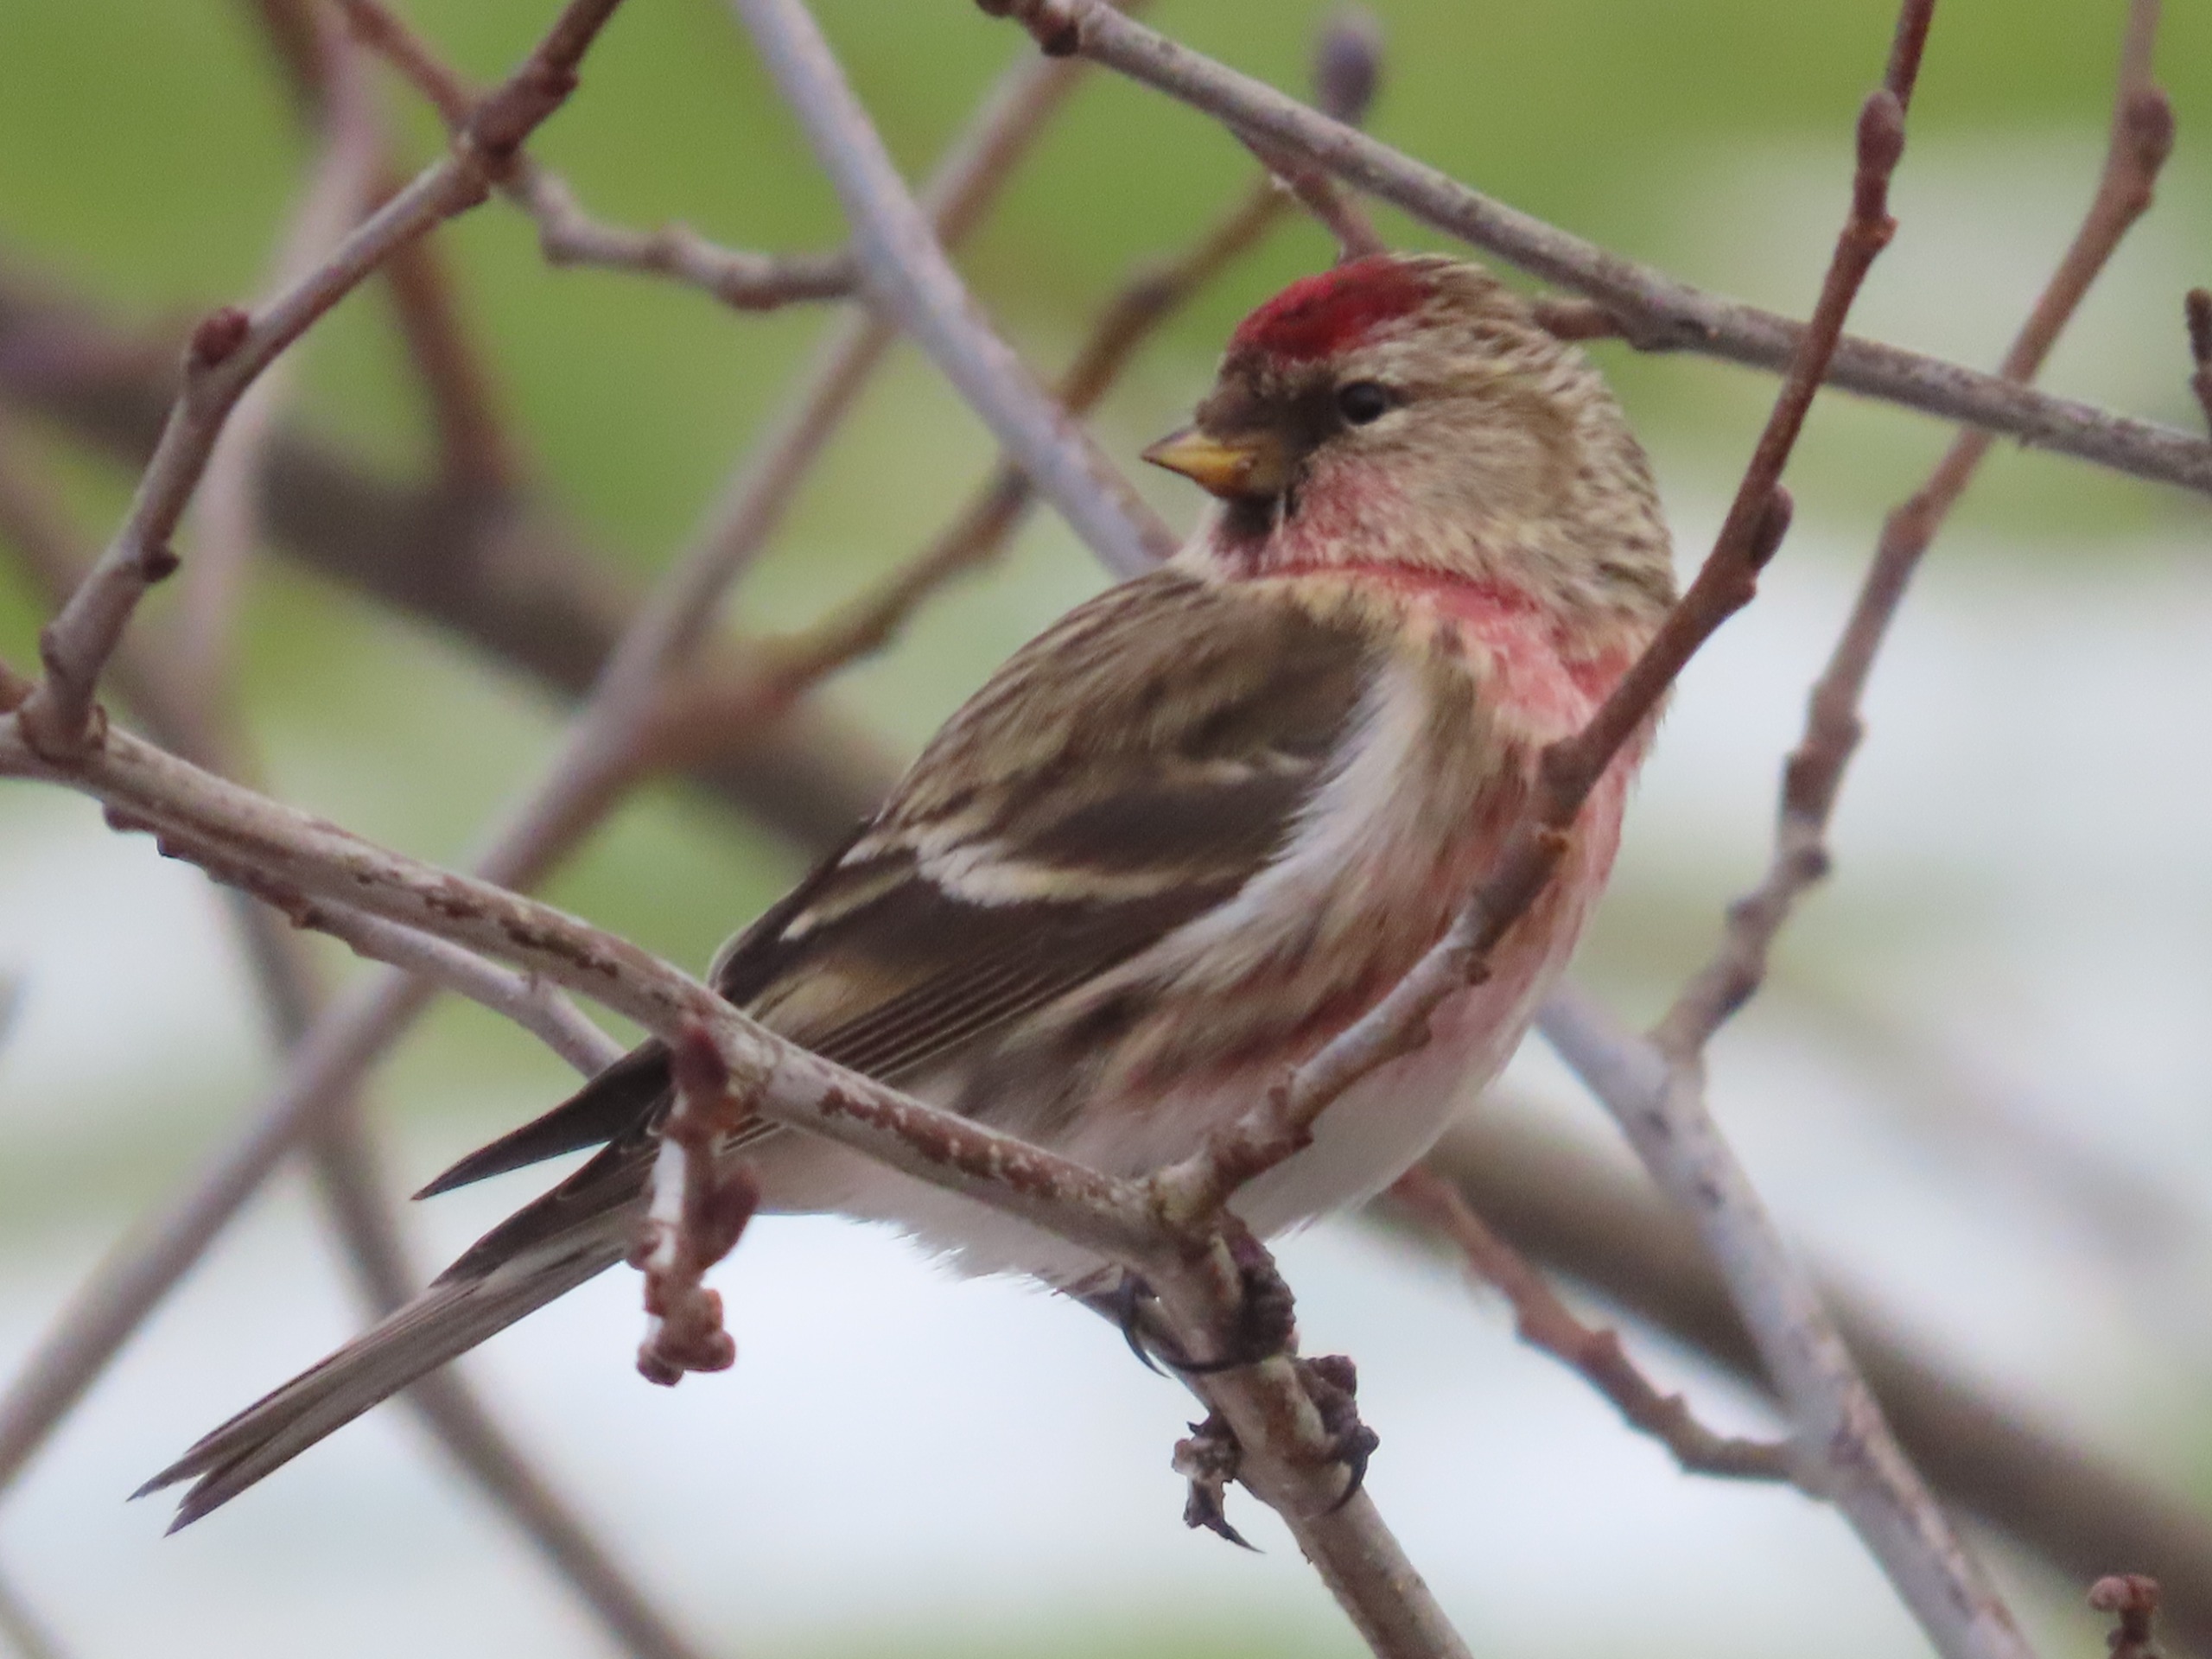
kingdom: Animalia
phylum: Chordata
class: Aves
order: Passeriformes
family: Fringillidae
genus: Acanthis
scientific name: Acanthis flammea
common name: Nordlig gråsisken
